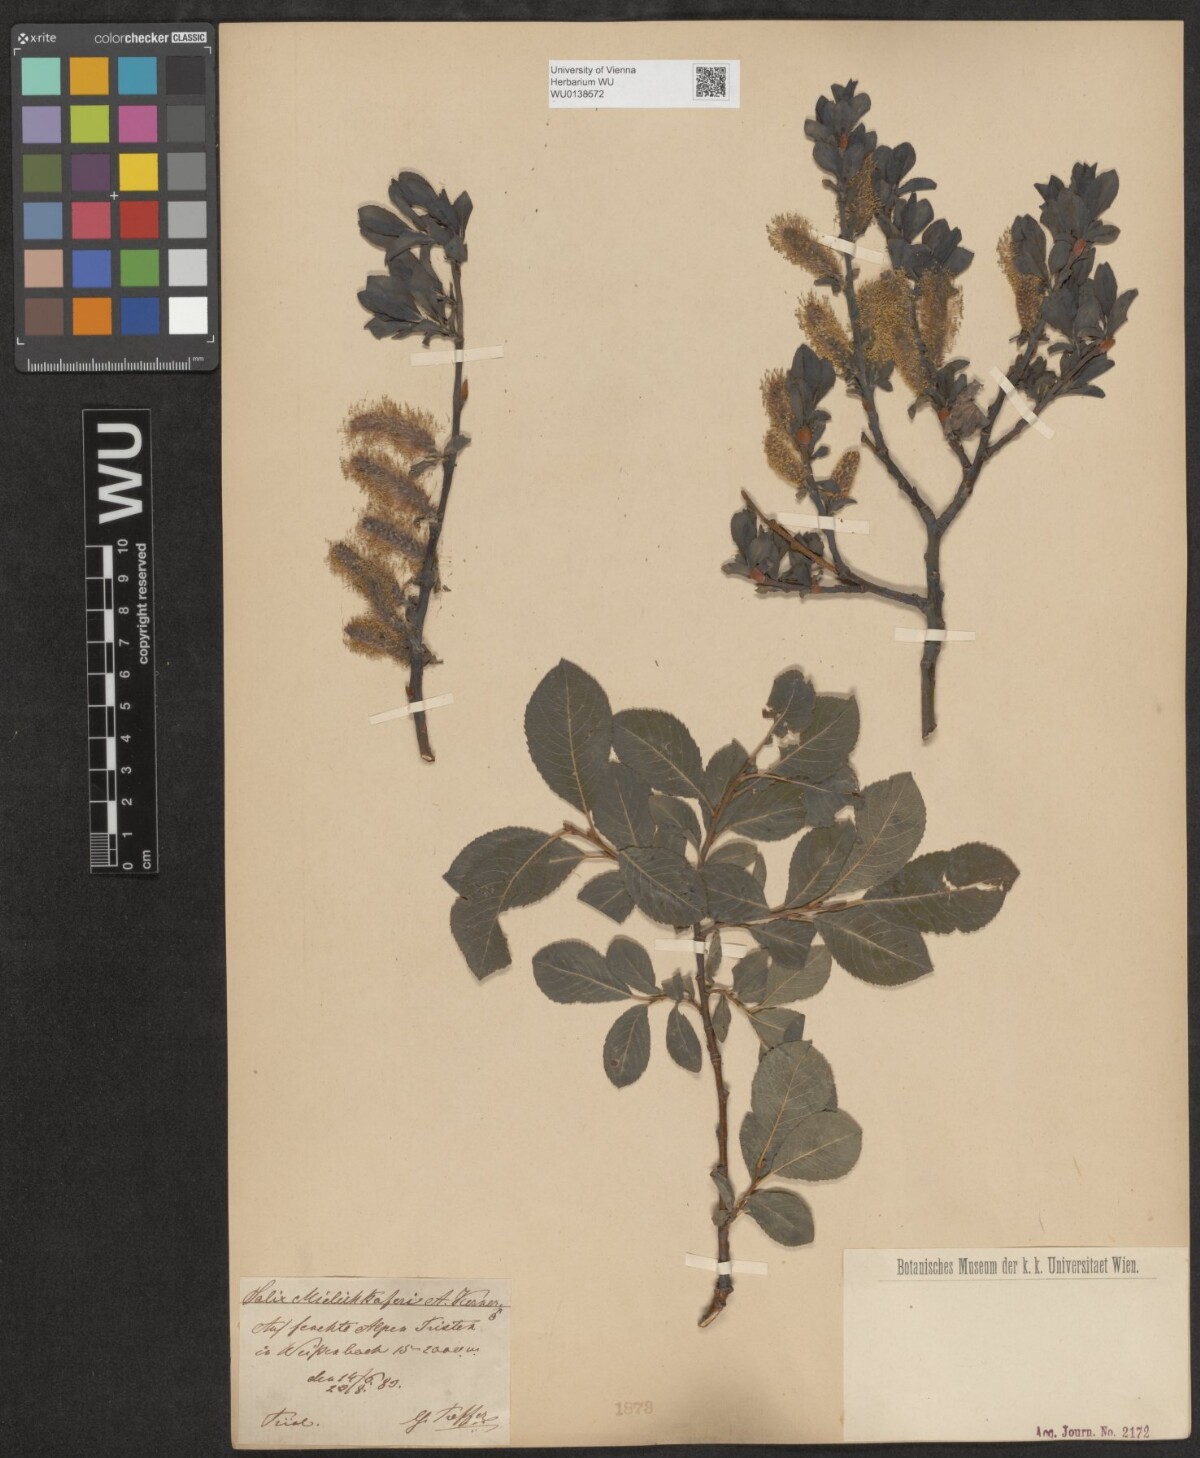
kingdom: Plantae
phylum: Tracheophyta
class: Magnoliopsida
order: Malpighiales
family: Salicaceae
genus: Salix
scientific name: Salix mielichhoferi
